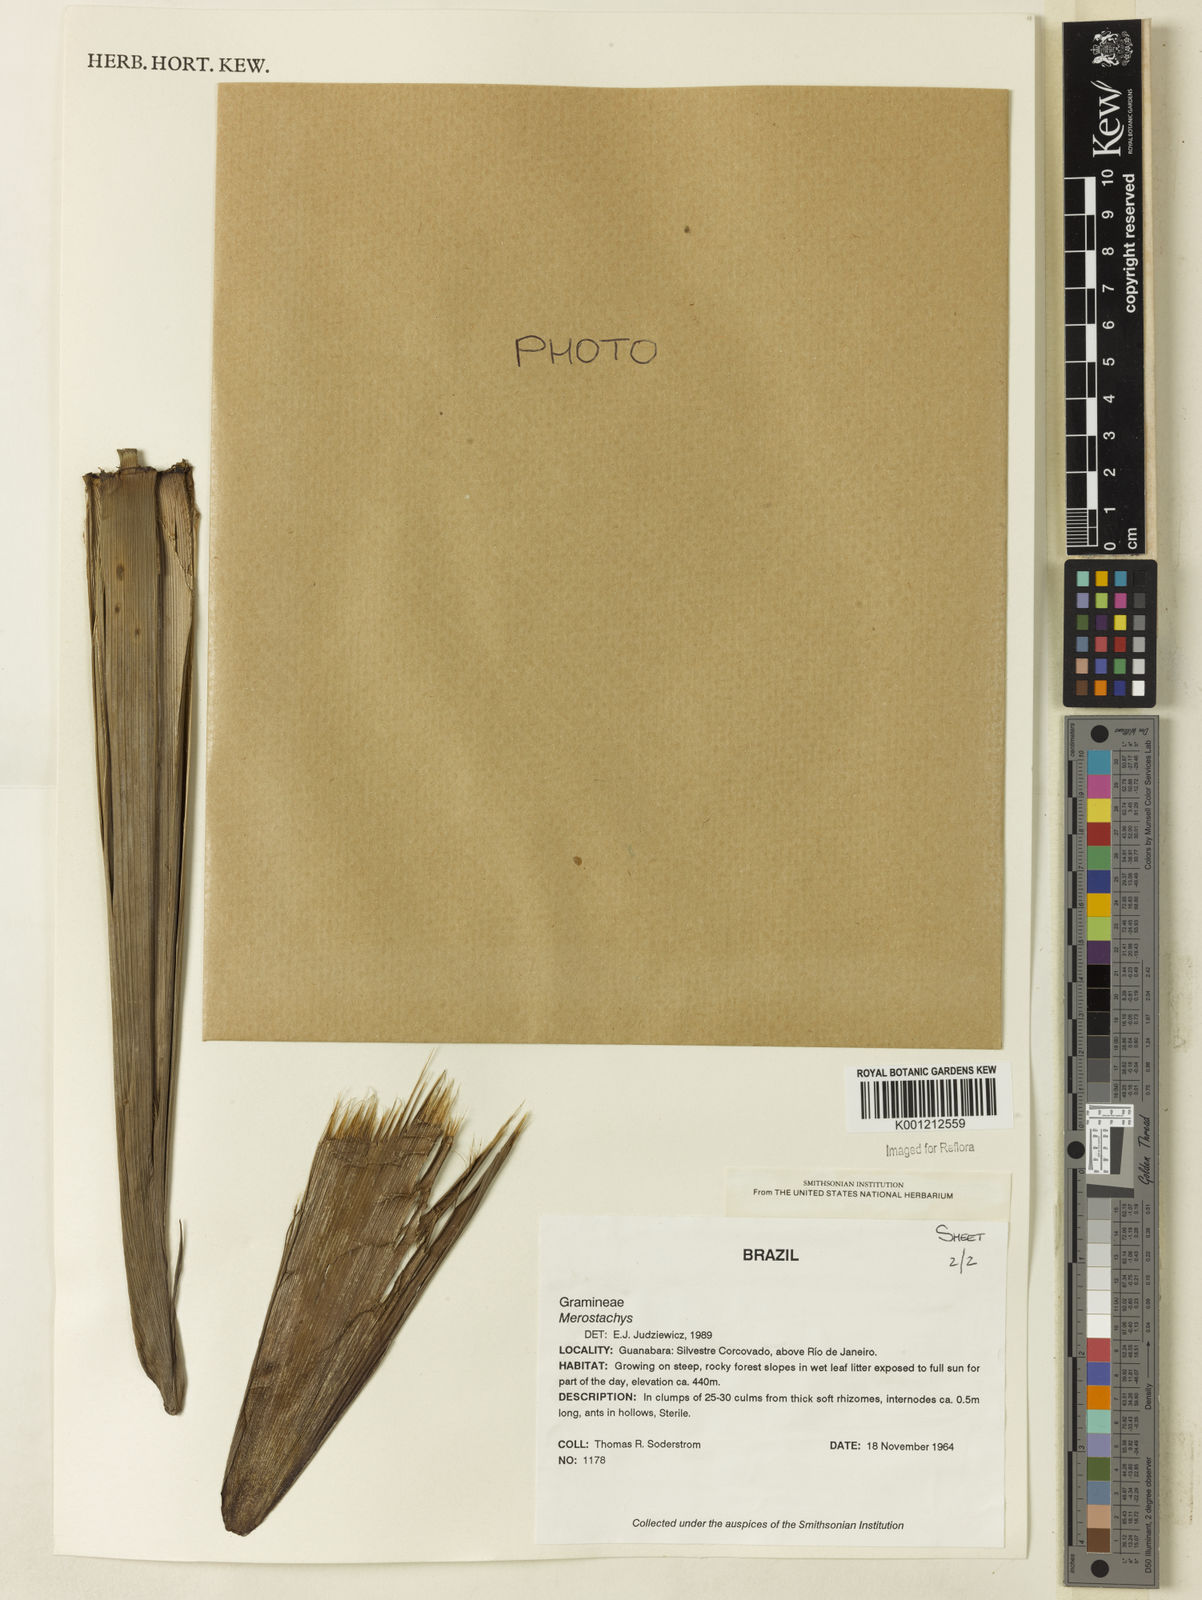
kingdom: Plantae
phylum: Tracheophyta
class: Liliopsida
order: Poales
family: Poaceae
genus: Merostachys
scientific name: Merostachys
